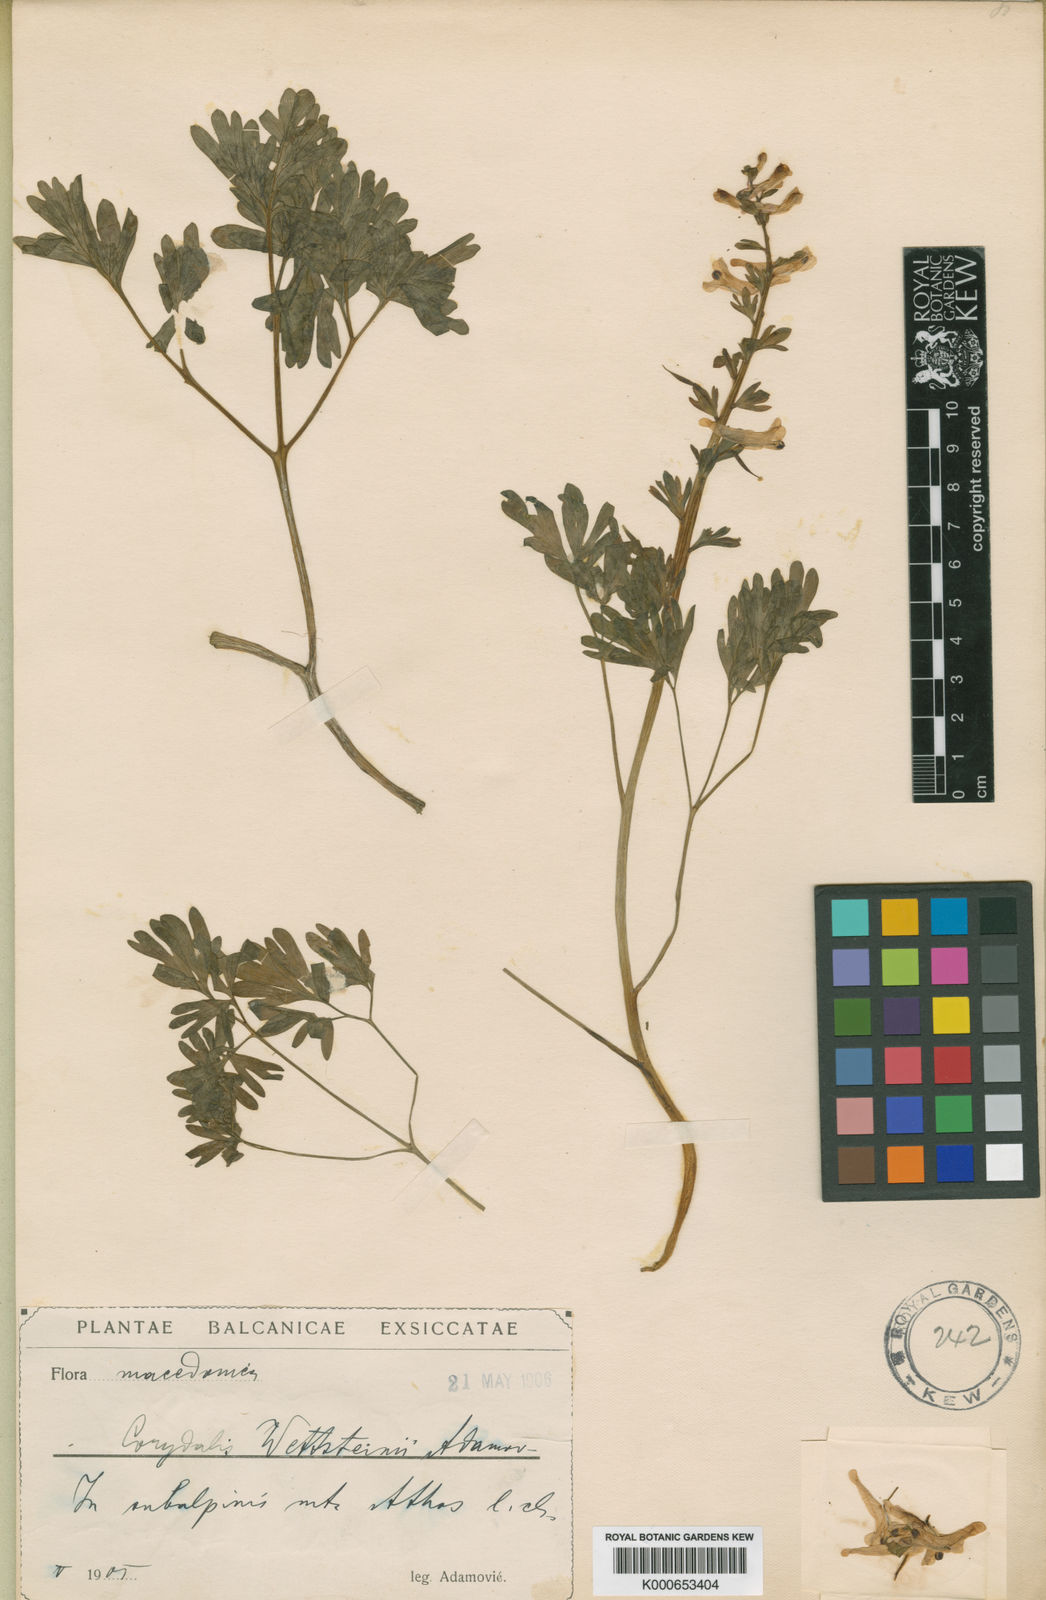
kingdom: Plantae
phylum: Tracheophyta
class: Magnoliopsida
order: Ranunculales
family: Papaveraceae
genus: Corydalis
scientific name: Corydalis
